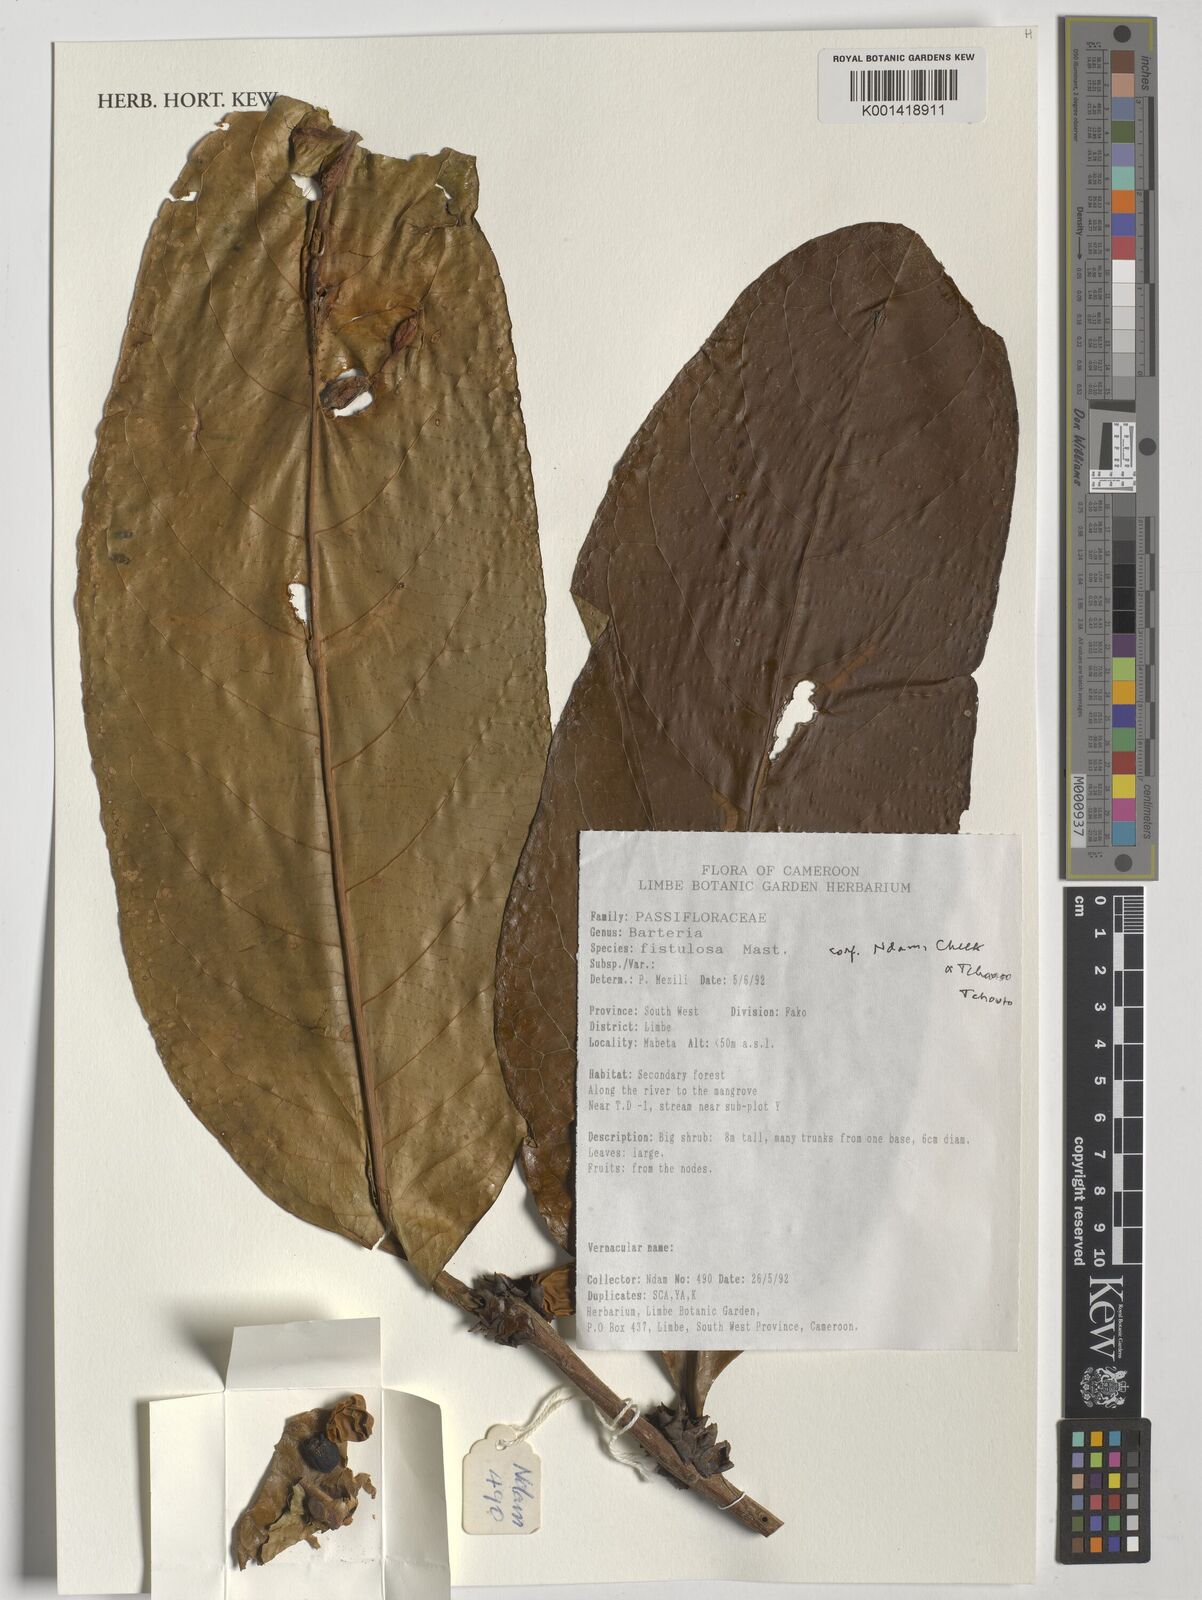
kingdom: Plantae
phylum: Tracheophyta
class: Magnoliopsida
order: Malpighiales
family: Passifloraceae
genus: Barteria
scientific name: Barteria fistulosa
